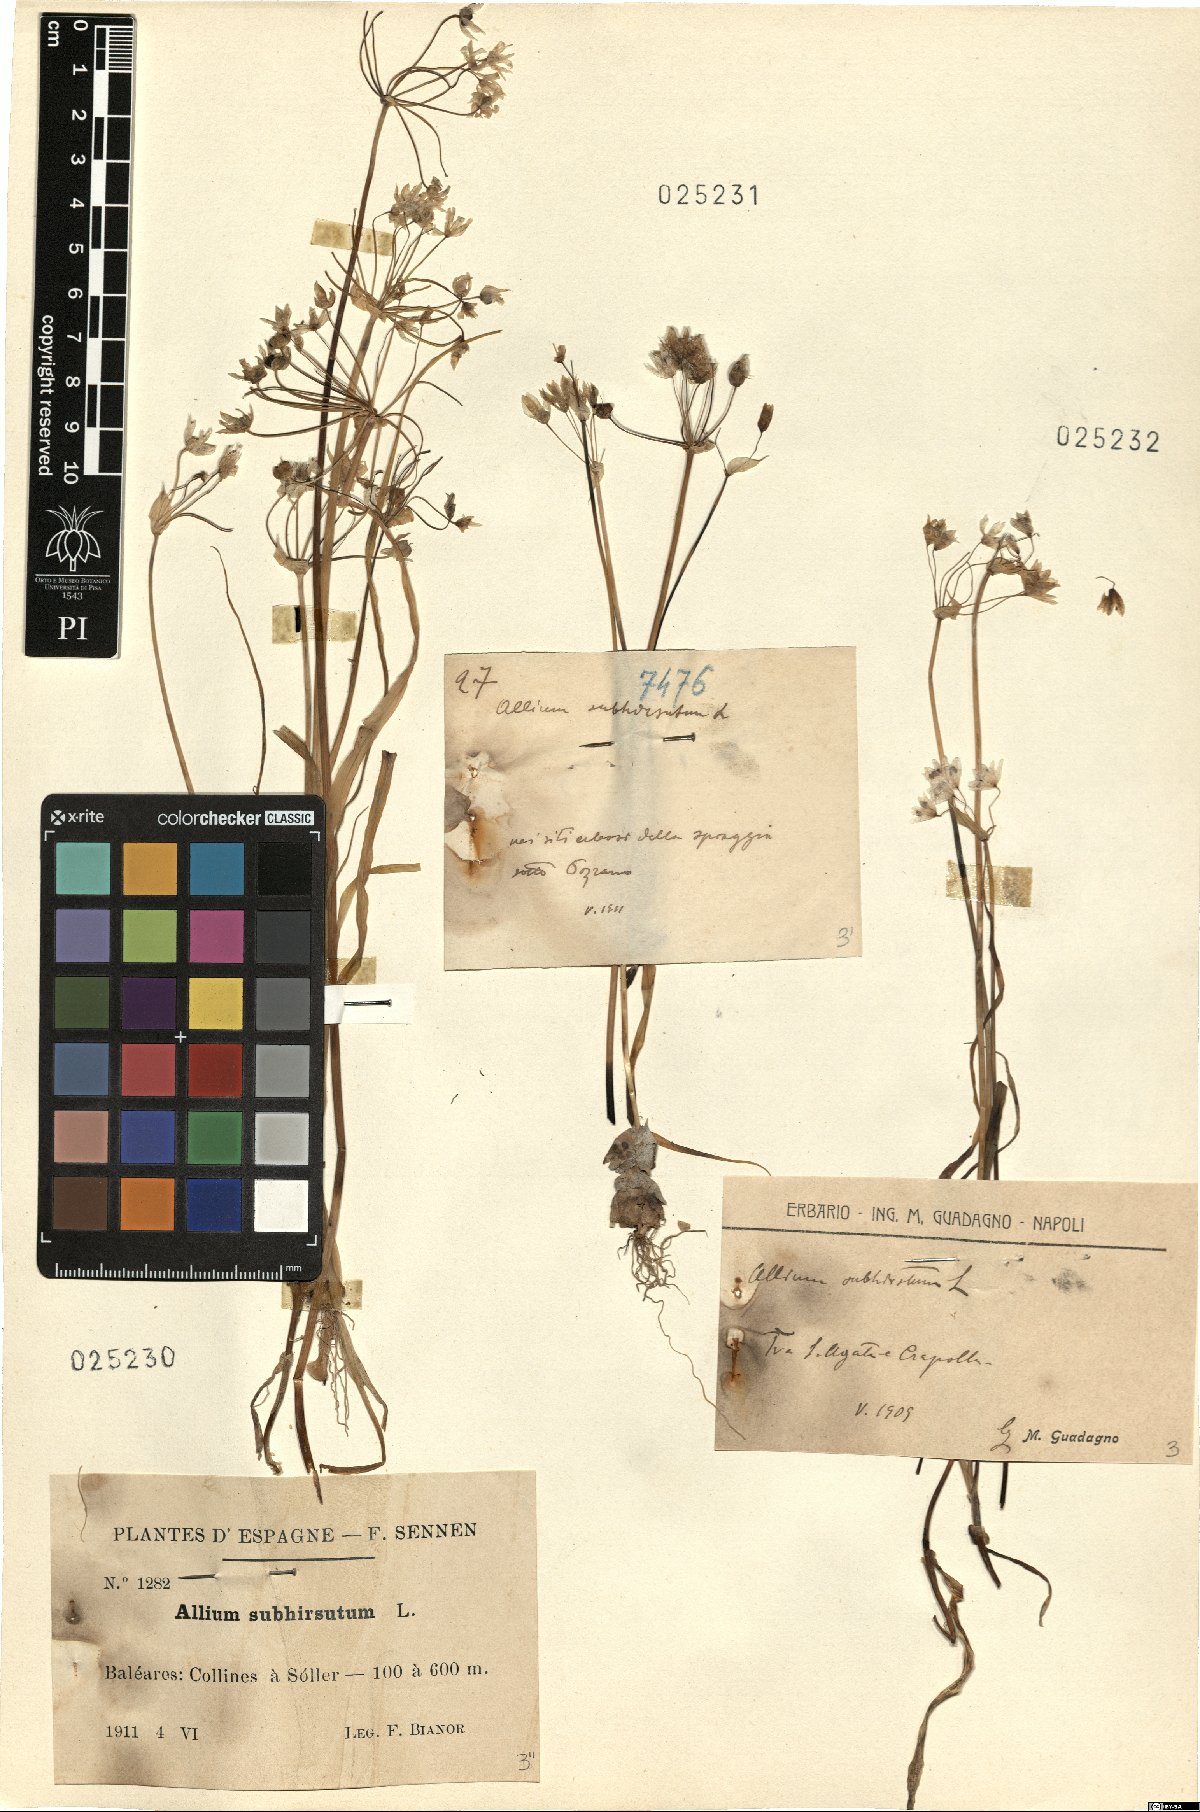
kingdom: Plantae
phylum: Tracheophyta
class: Liliopsida
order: Asparagales
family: Amaryllidaceae
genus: Allium
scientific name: Allium subhirsutum
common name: Hairy garlic
